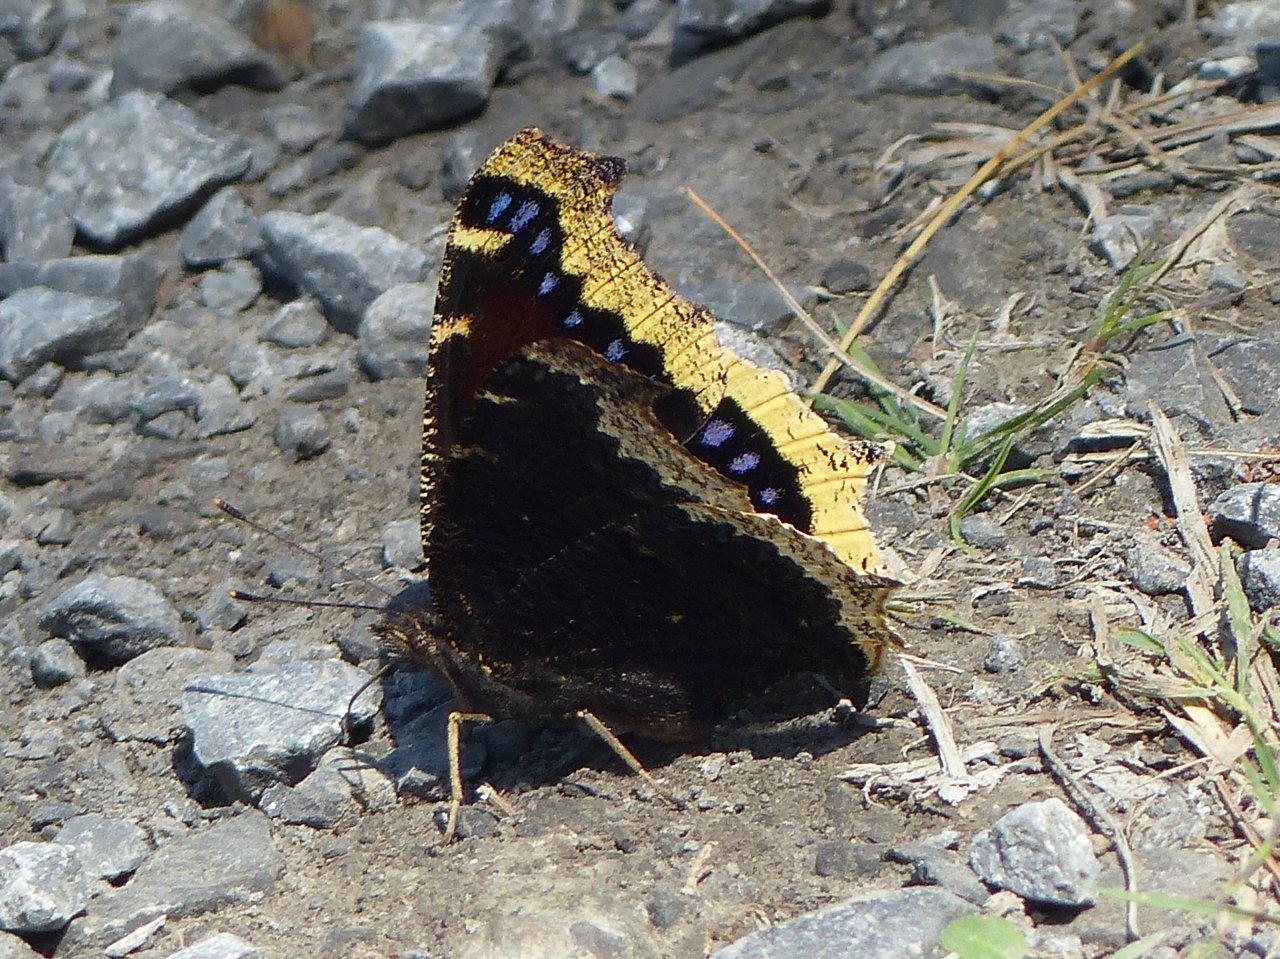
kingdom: Animalia
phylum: Arthropoda
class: Insecta
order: Lepidoptera
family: Nymphalidae
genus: Nymphalis
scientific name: Nymphalis antiopa
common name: Mourning Cloak
